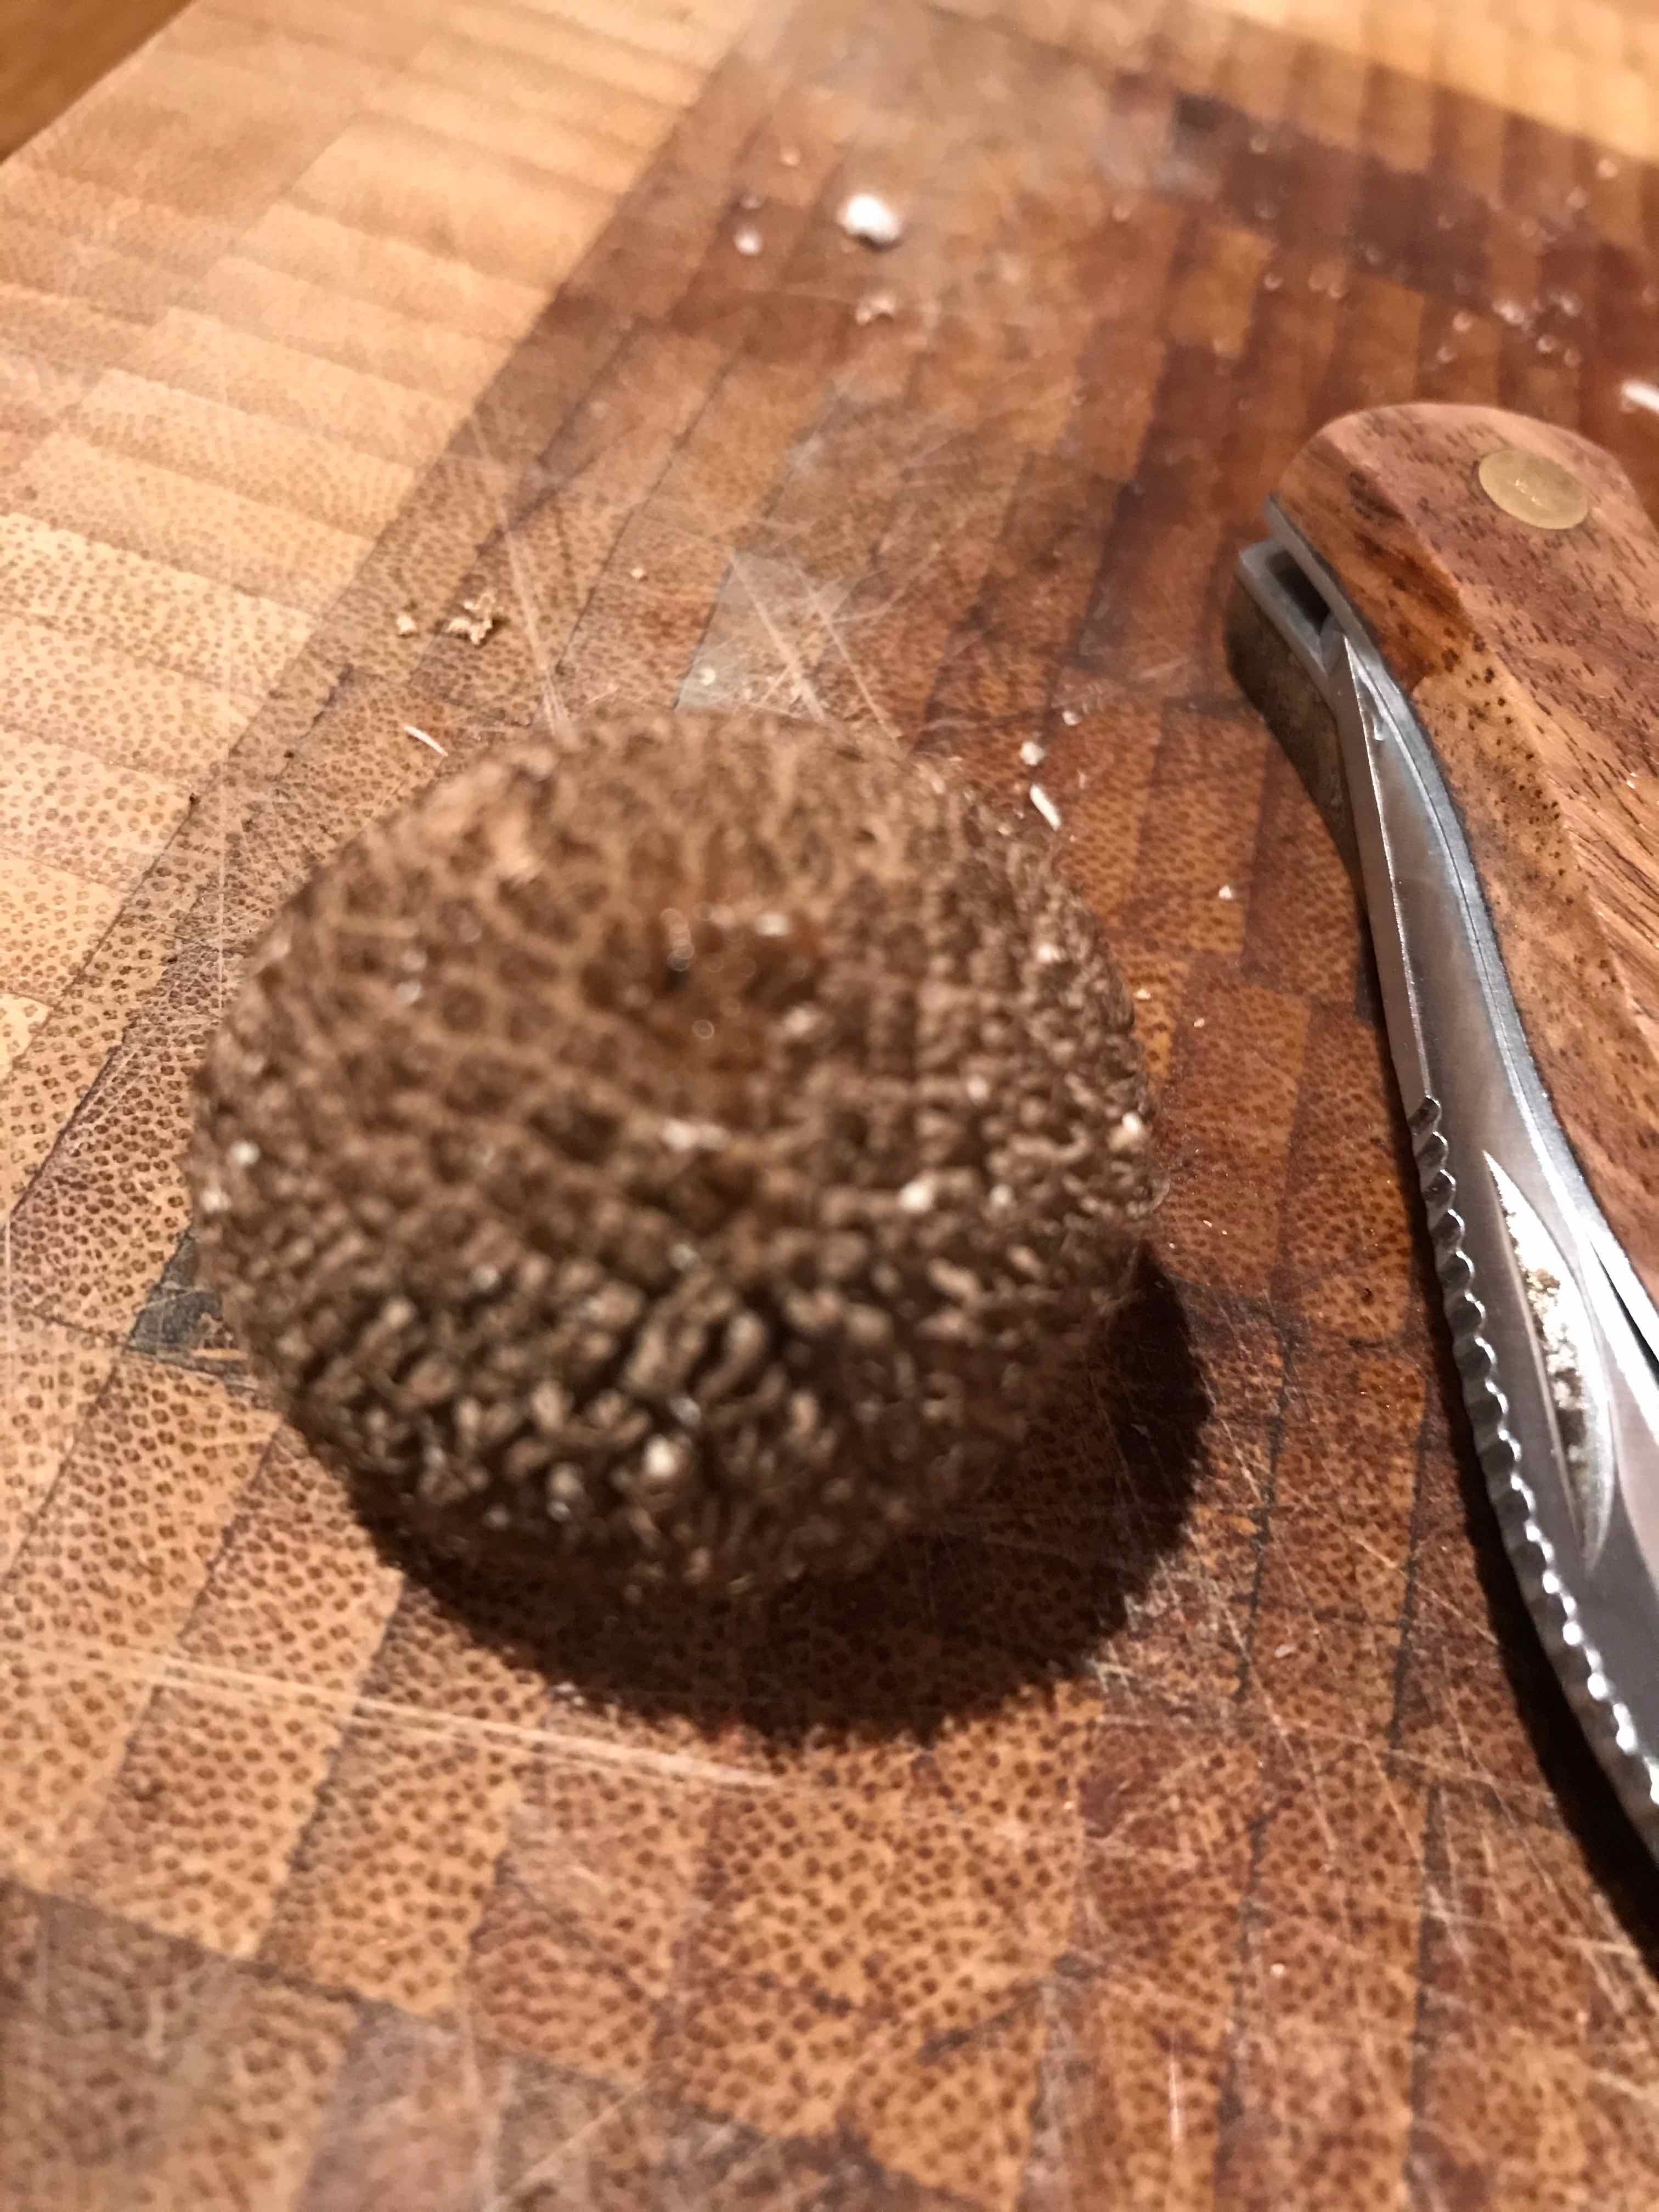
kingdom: Fungi
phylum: Basidiomycota
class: Agaricomycetes
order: Agaricales
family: Lycoperdaceae
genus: Lycoperdon
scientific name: Lycoperdon nigrescens
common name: sortagtig støvbold
